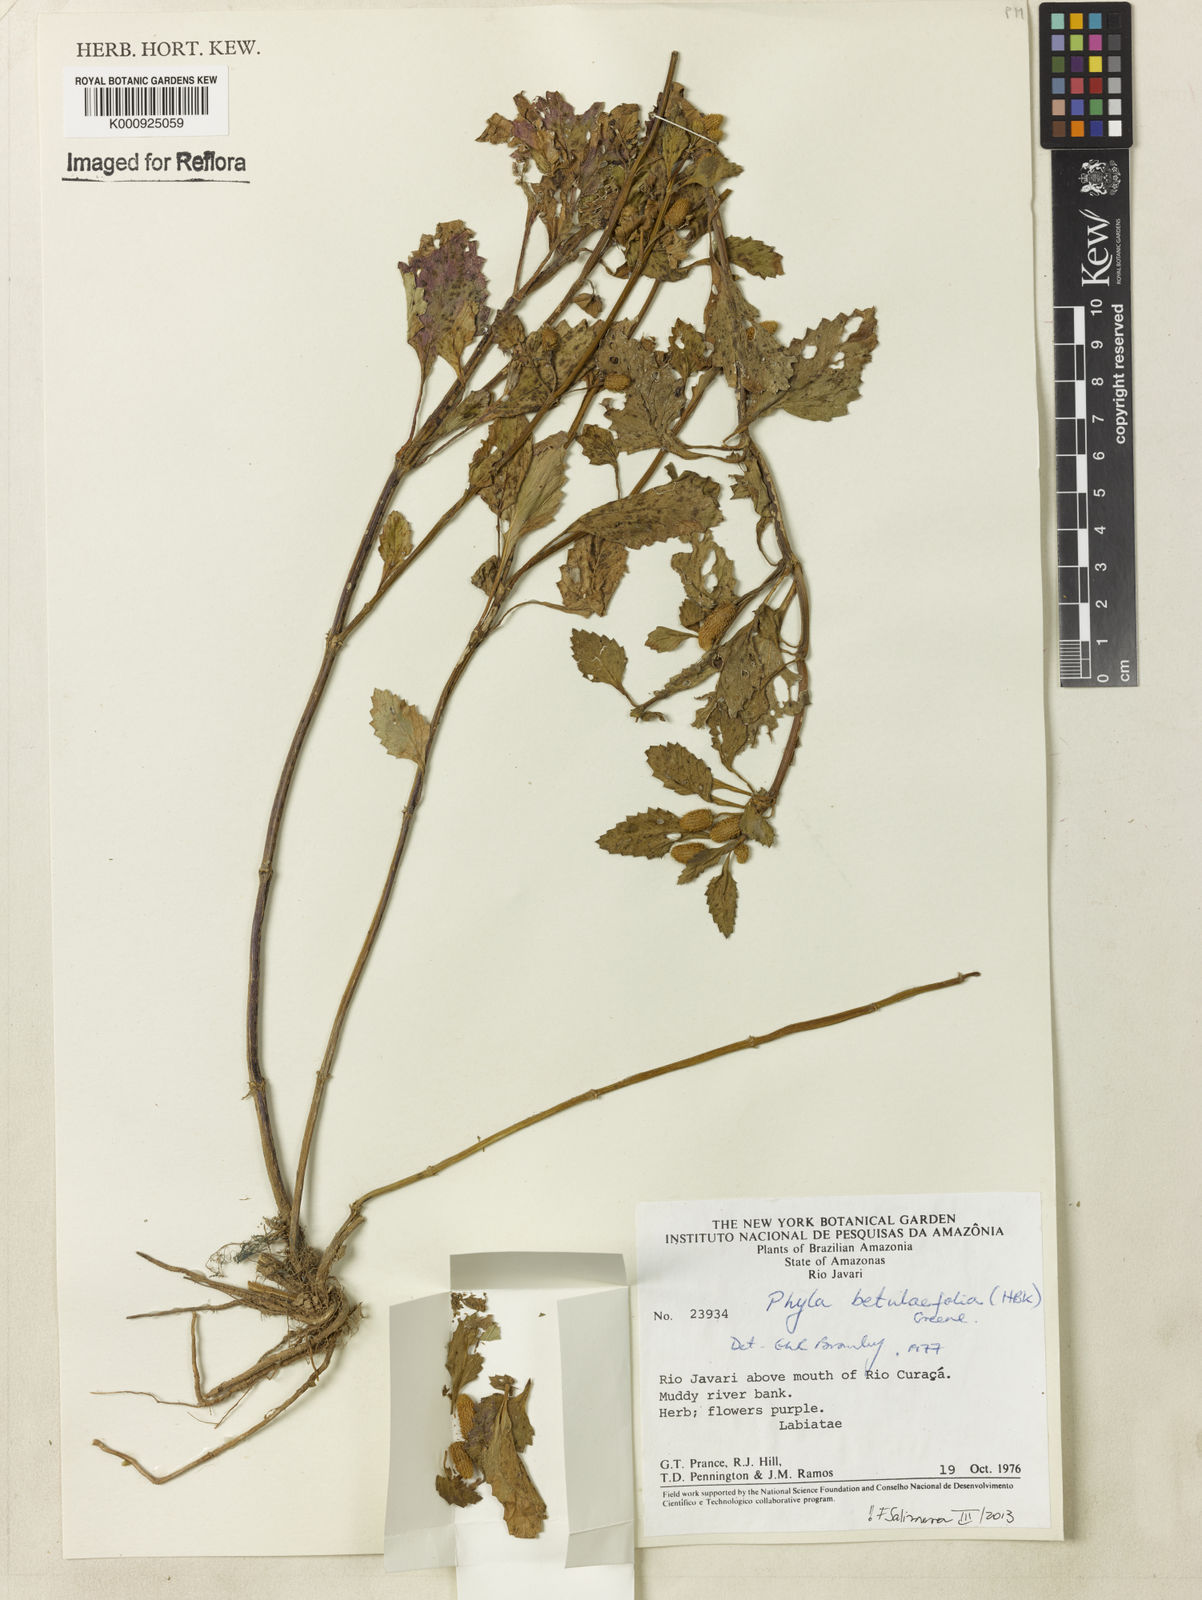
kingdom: Plantae
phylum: Tracheophyta
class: Magnoliopsida
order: Lamiales
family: Verbenaceae
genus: Phyla
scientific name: Phyla betulifolia
